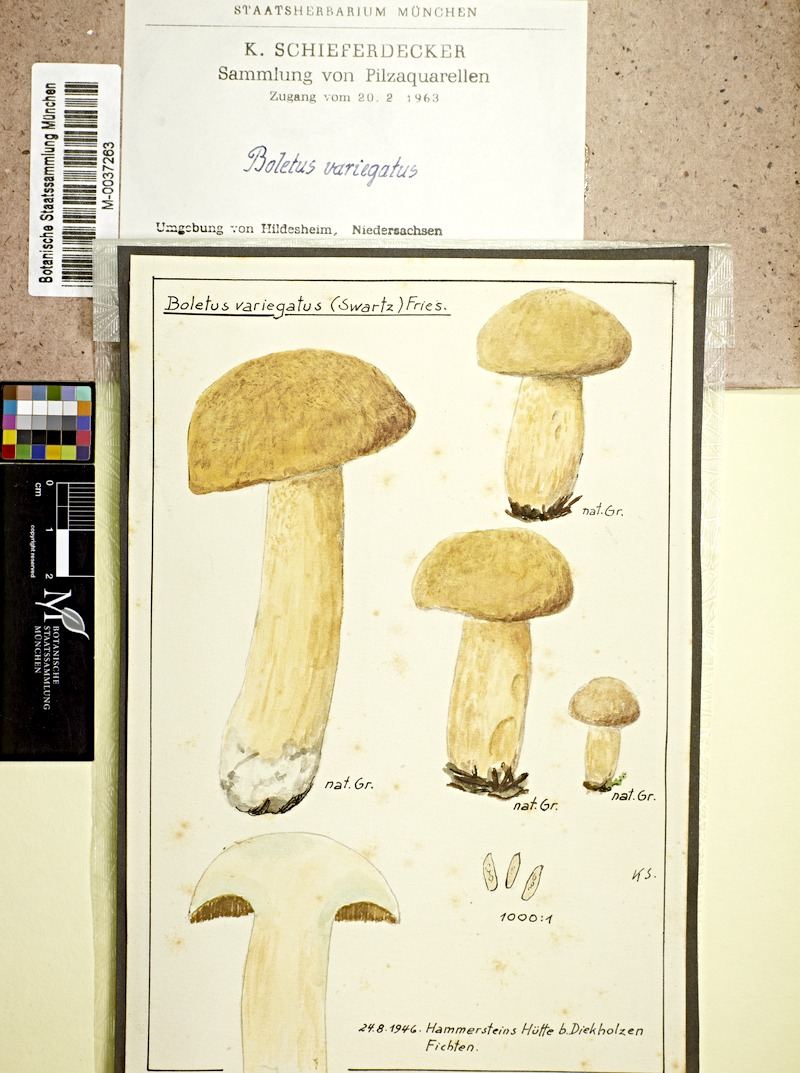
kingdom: Fungi
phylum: Basidiomycota
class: Agaricomycetes
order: Boletales
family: Suillaceae
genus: Suillus
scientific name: Suillus variegatus
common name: Velvet bolete
